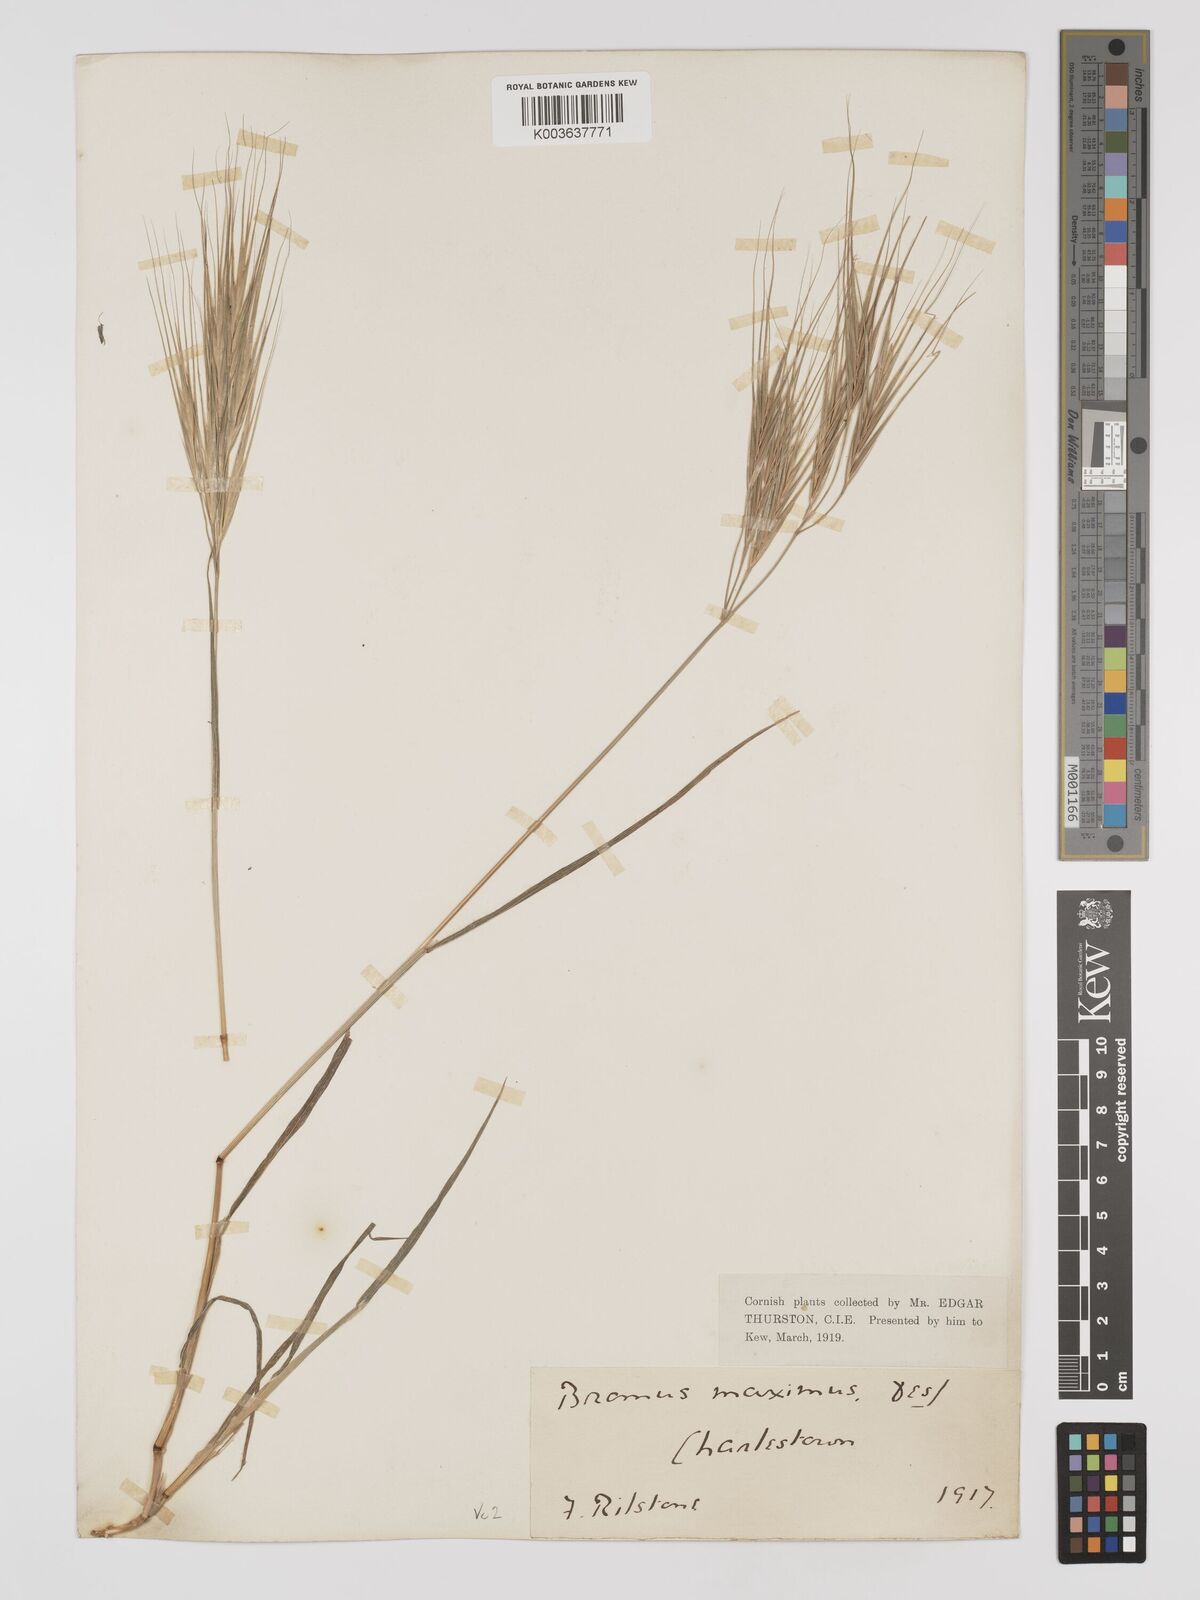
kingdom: Plantae
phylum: Tracheophyta
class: Liliopsida
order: Poales
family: Poaceae
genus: Bromus
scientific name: Bromus
